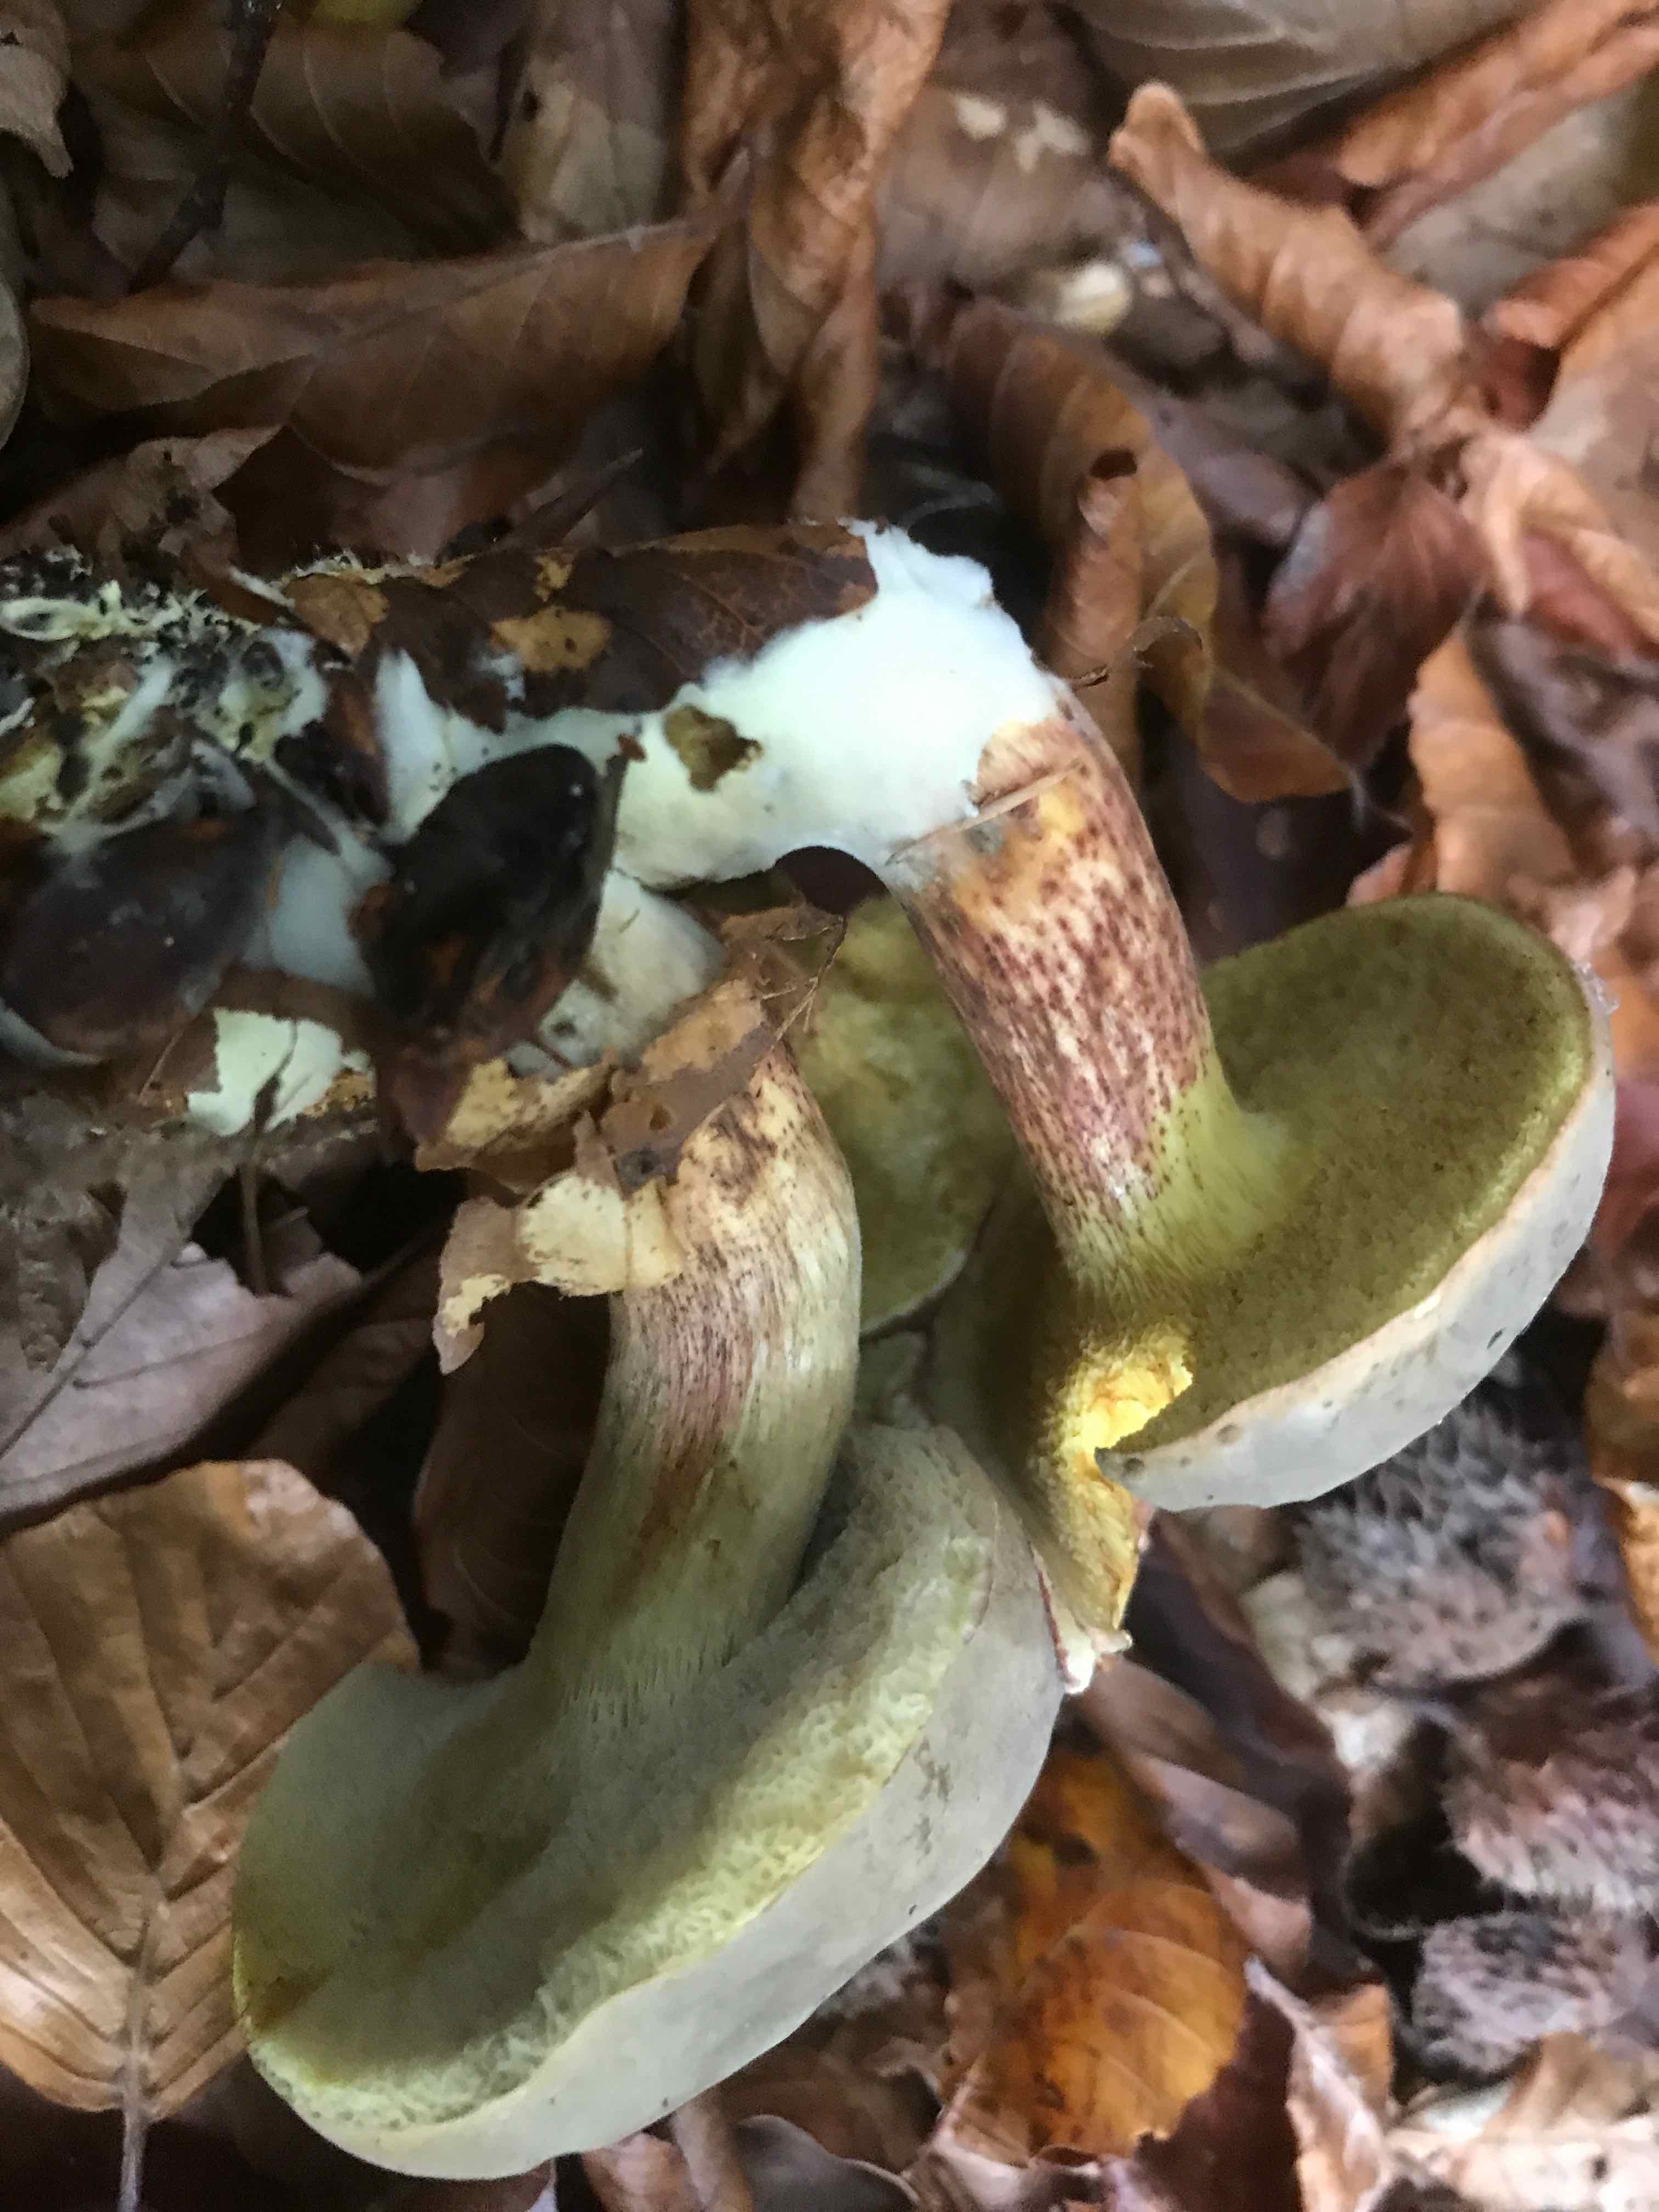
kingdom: Fungi
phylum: Basidiomycota
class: Agaricomycetes
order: Boletales
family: Boletaceae
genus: Xerocomellus
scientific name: Xerocomellus pruinatus
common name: dugget rørhat
